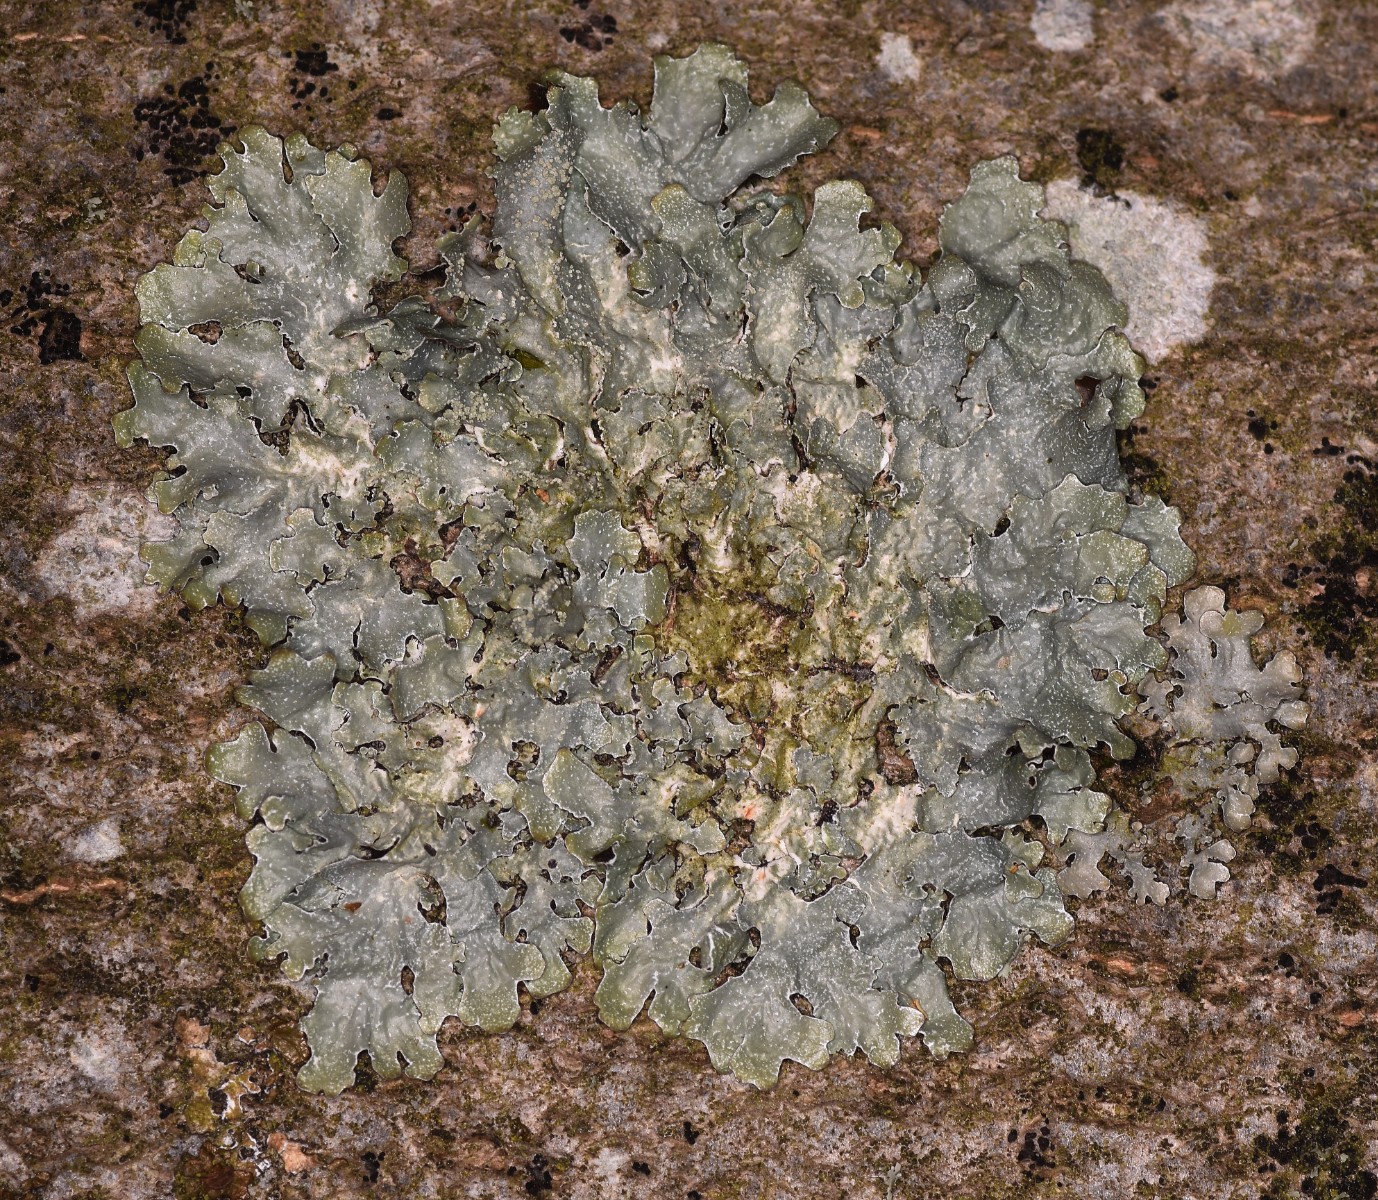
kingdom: Fungi
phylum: Ascomycota
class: Lecanoromycetes
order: Lecanorales
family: Parmeliaceae
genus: Parmelia
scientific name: Parmelia sulcata
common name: rynket skållav
